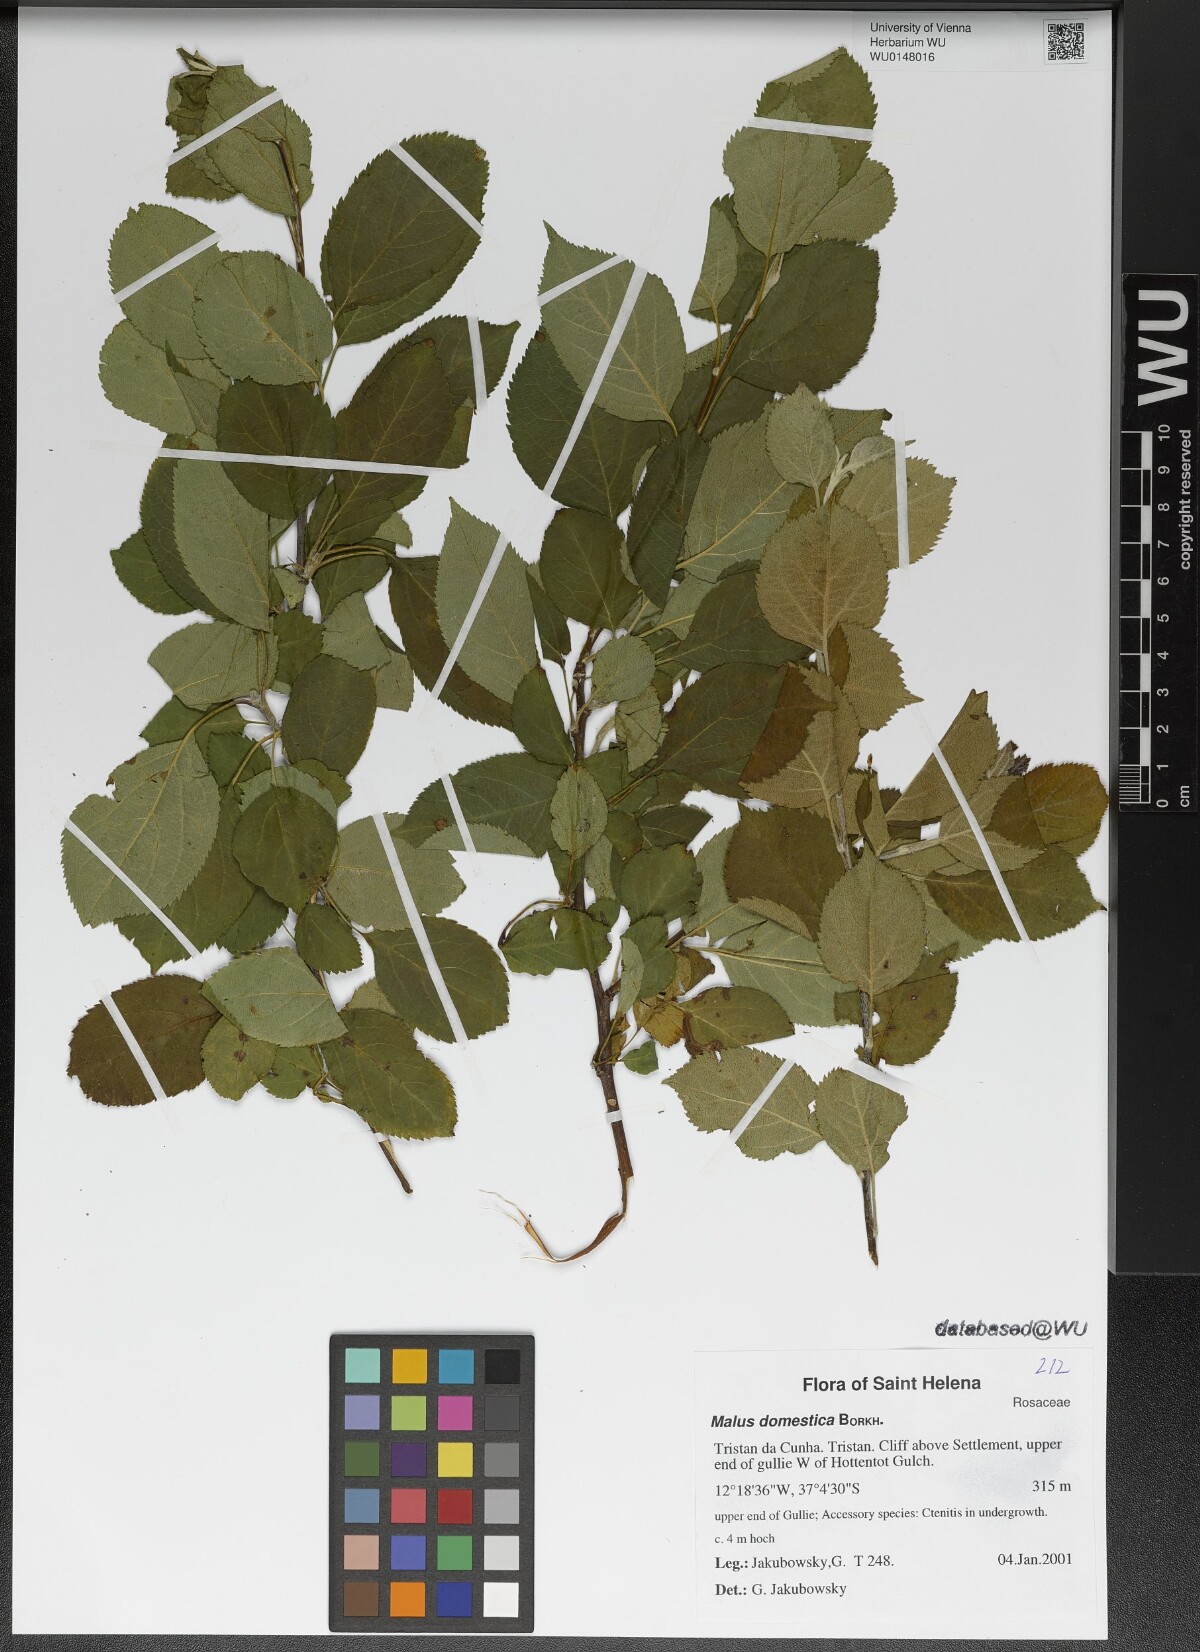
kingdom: Plantae
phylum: Tracheophyta
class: Magnoliopsida
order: Rosales
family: Rosaceae
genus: Malus
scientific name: Malus domestica
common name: Apple
